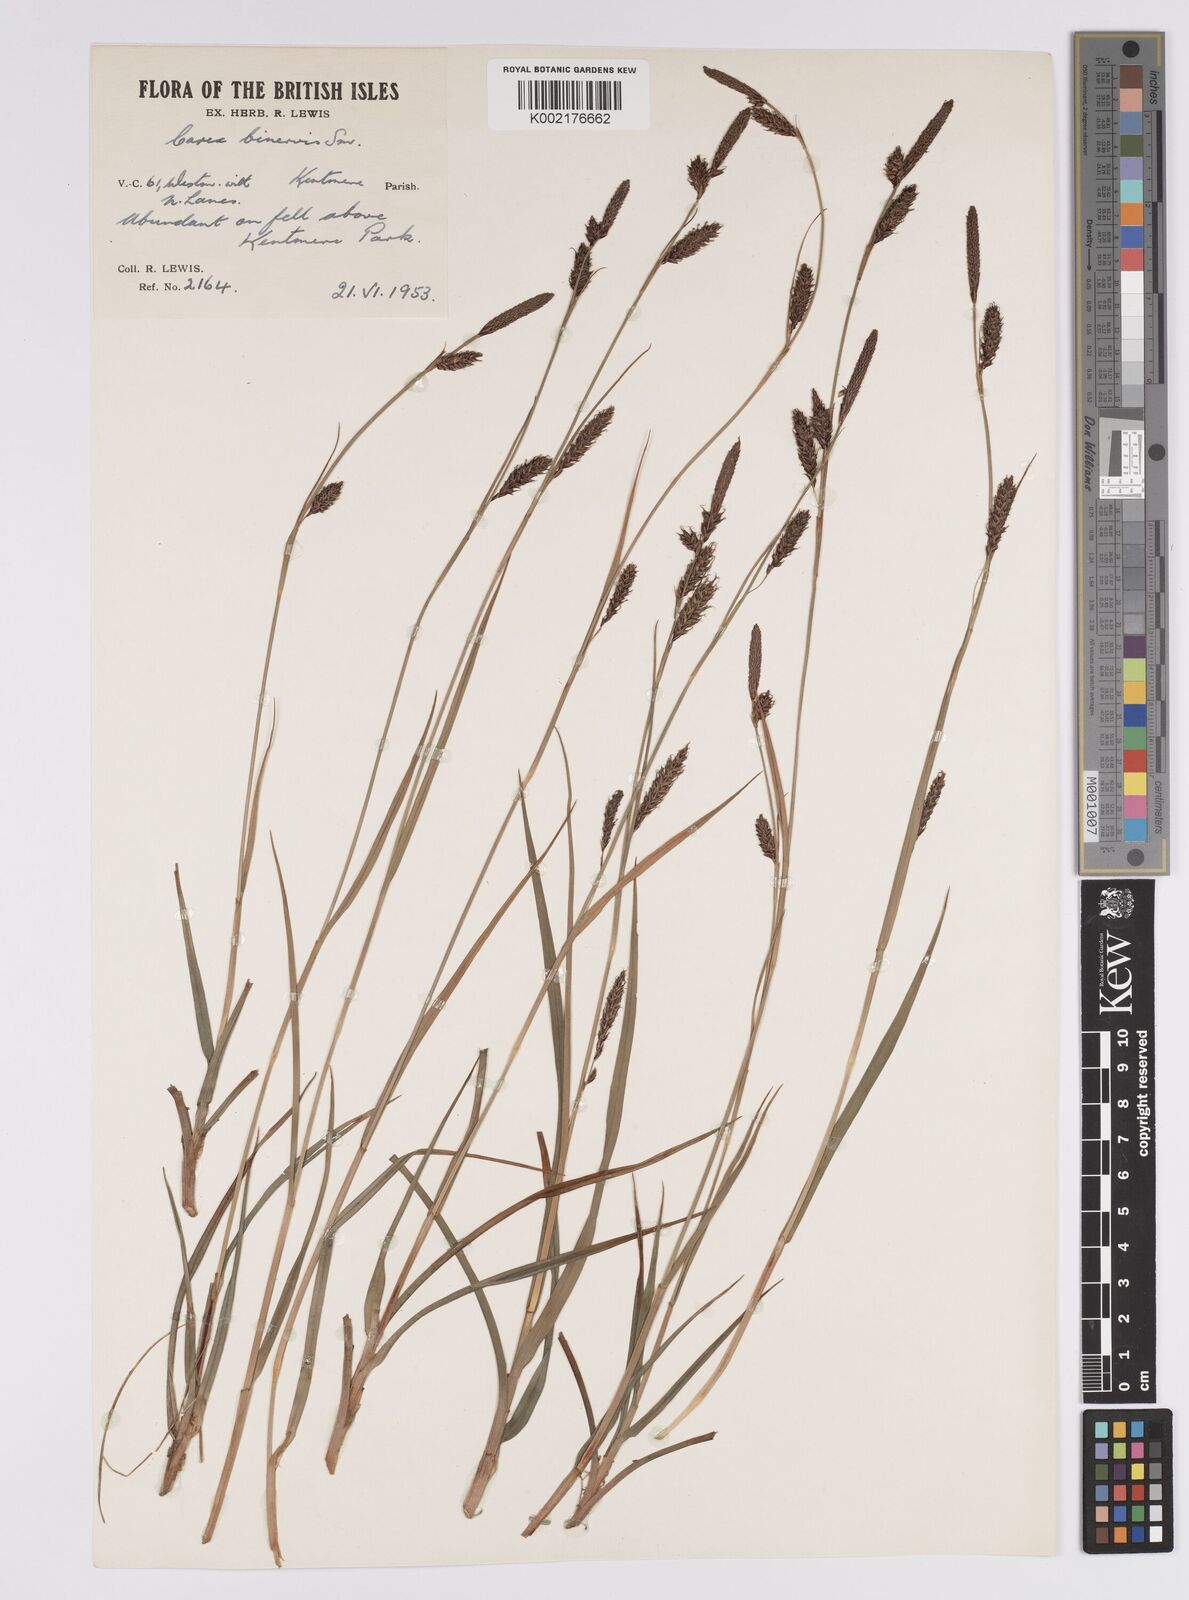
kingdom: Plantae
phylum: Tracheophyta
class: Liliopsida
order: Poales
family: Cyperaceae
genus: Carex
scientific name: Carex binervis
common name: Green-ribbed sedge
